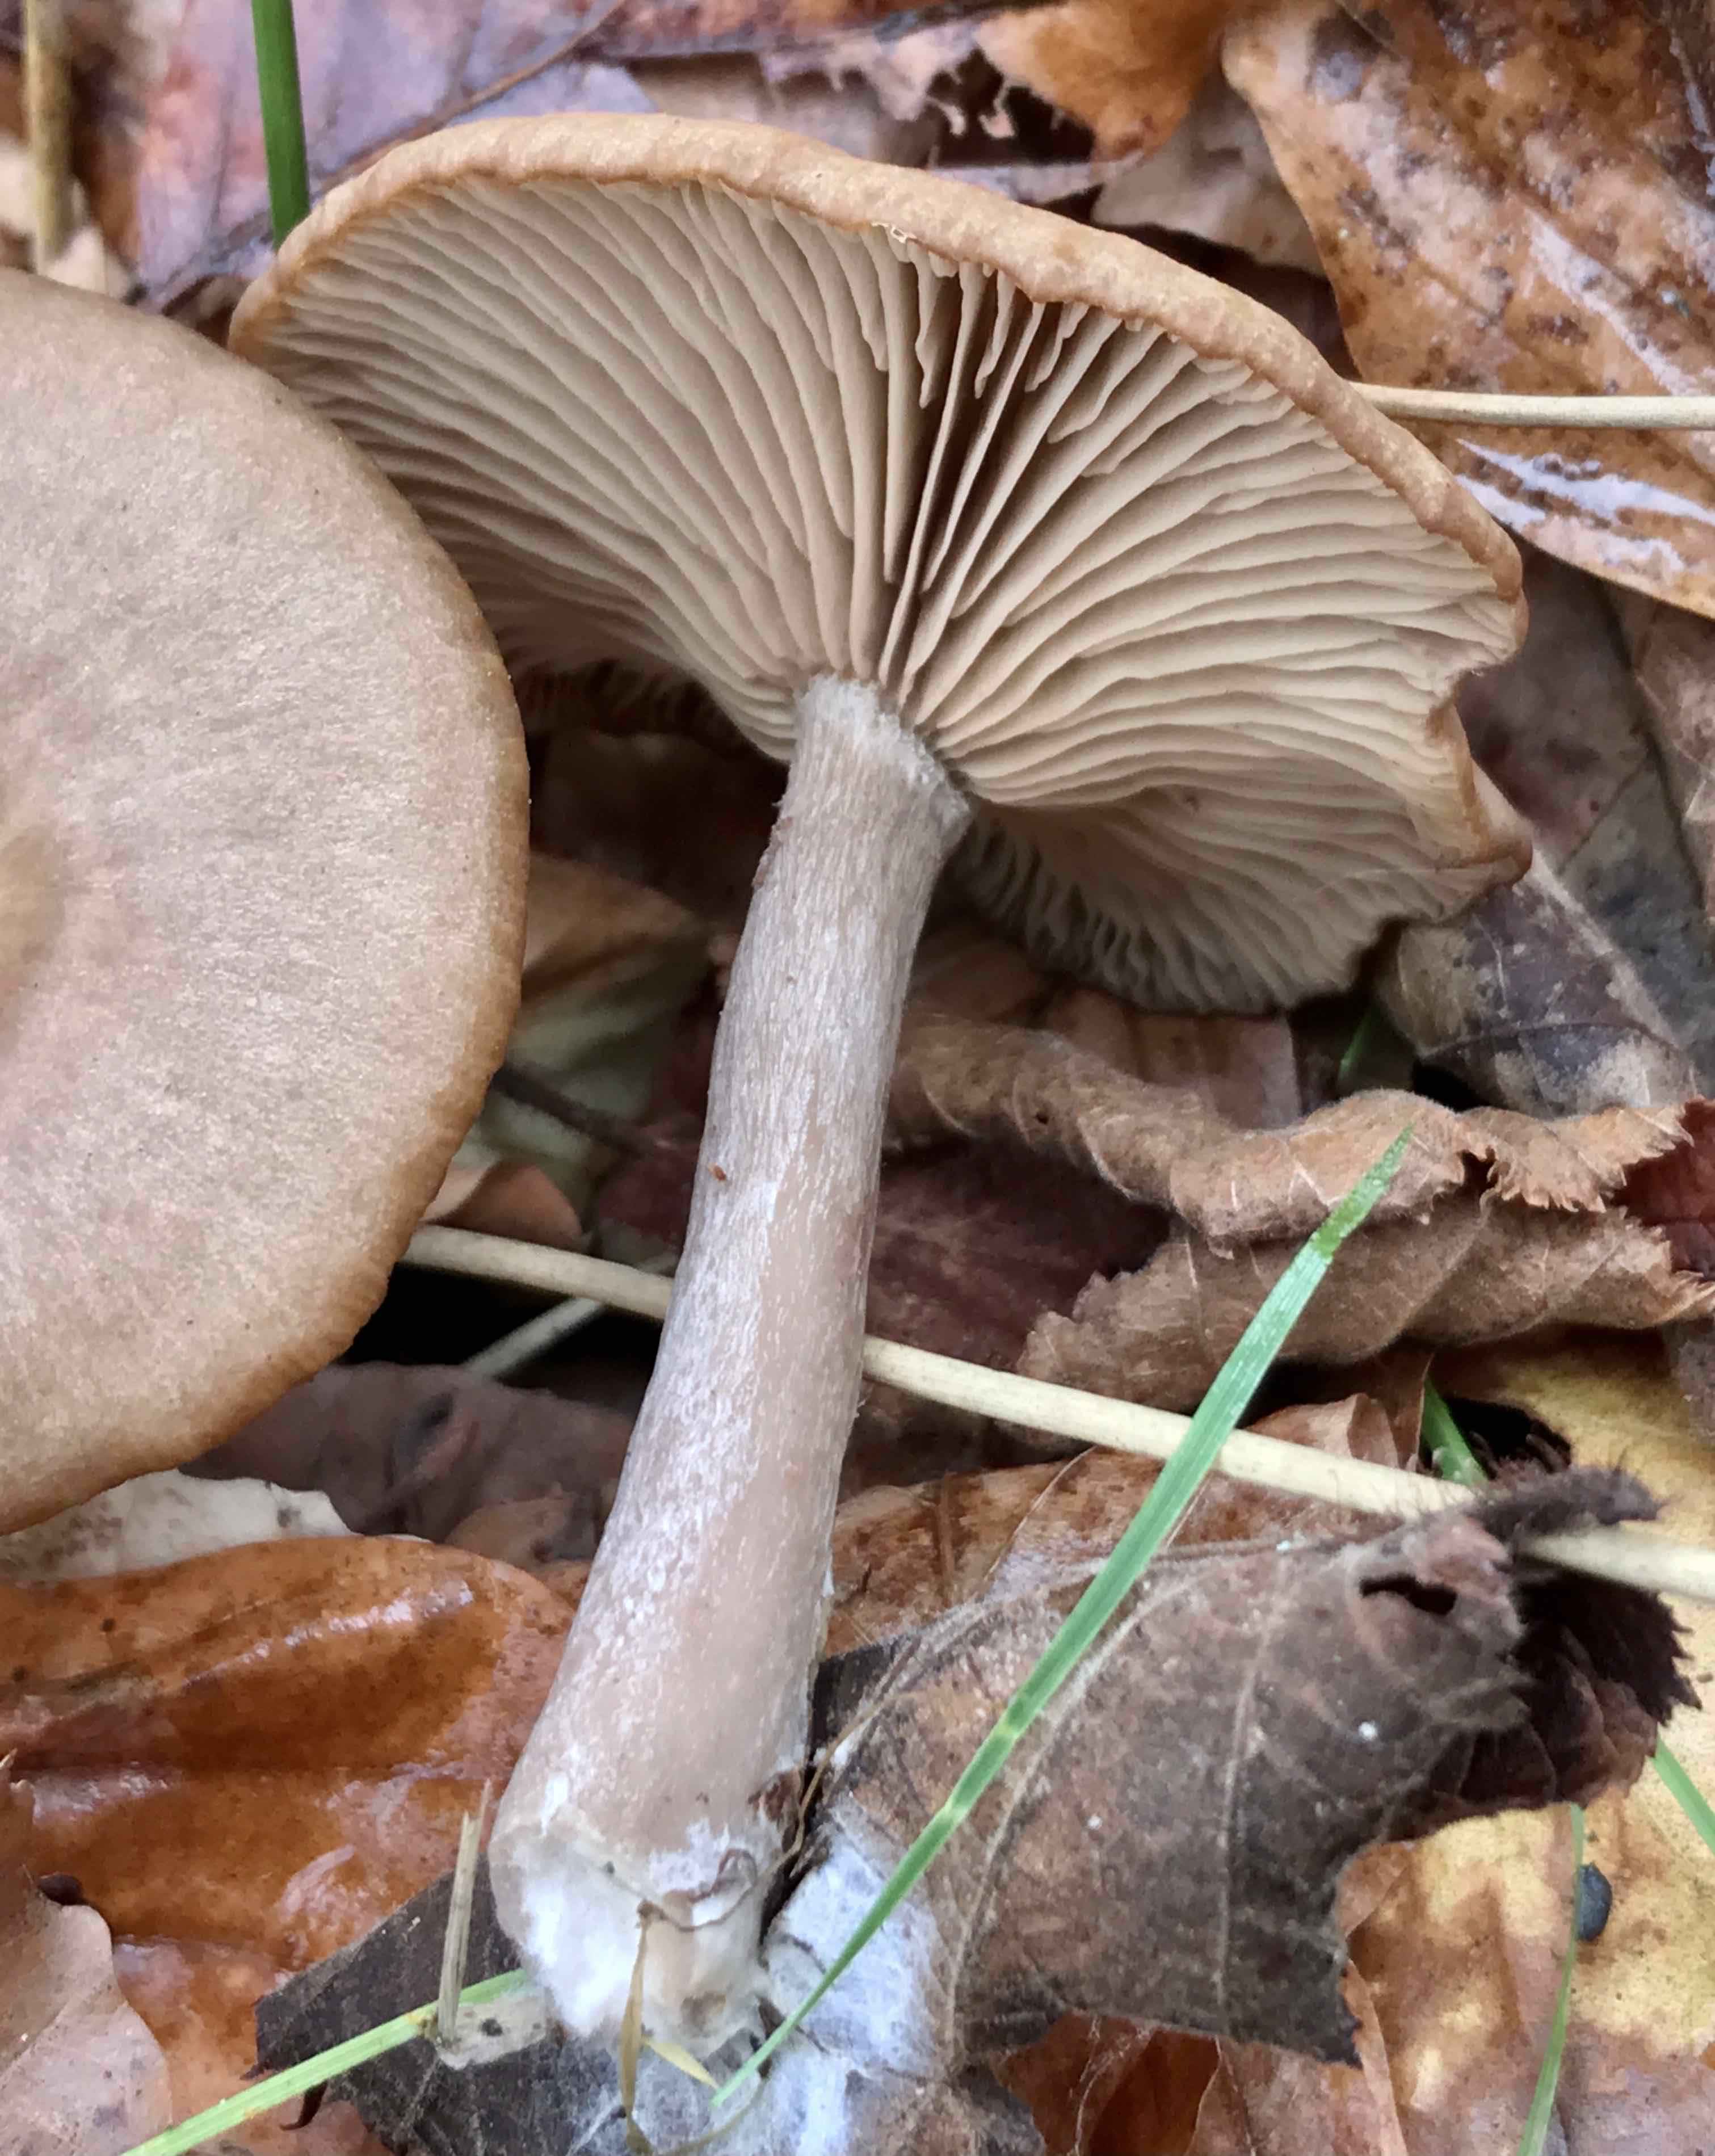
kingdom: Fungi
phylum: Basidiomycota
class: Agaricomycetes
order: Agaricales
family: Pseudoclitocybaceae
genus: Pseudoclitocybe
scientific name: Pseudoclitocybe cyathiformis
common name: almindelig bægertragthat
